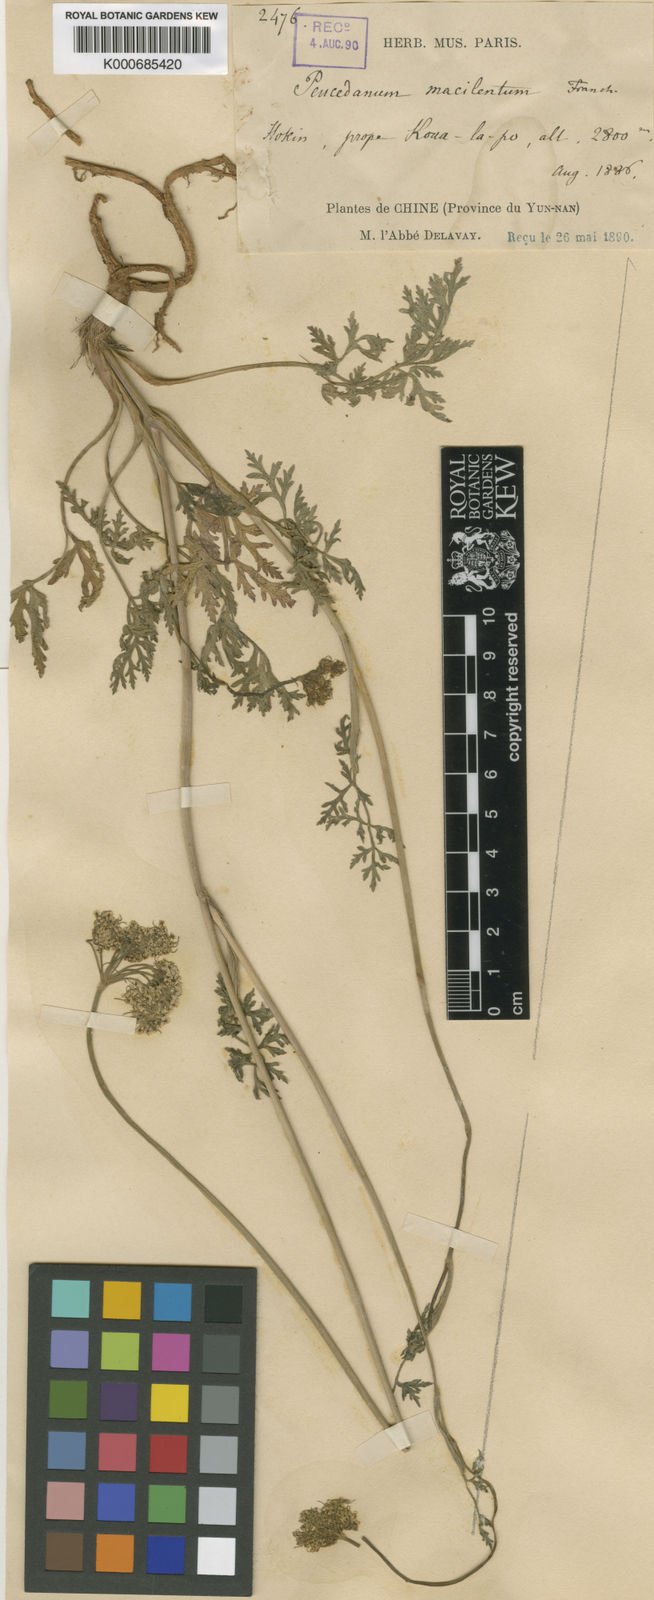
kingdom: Plantae
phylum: Tracheophyta
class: Magnoliopsida
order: Apiales
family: Apiaceae
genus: Kitagawia
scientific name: Kitagawia macilenta
